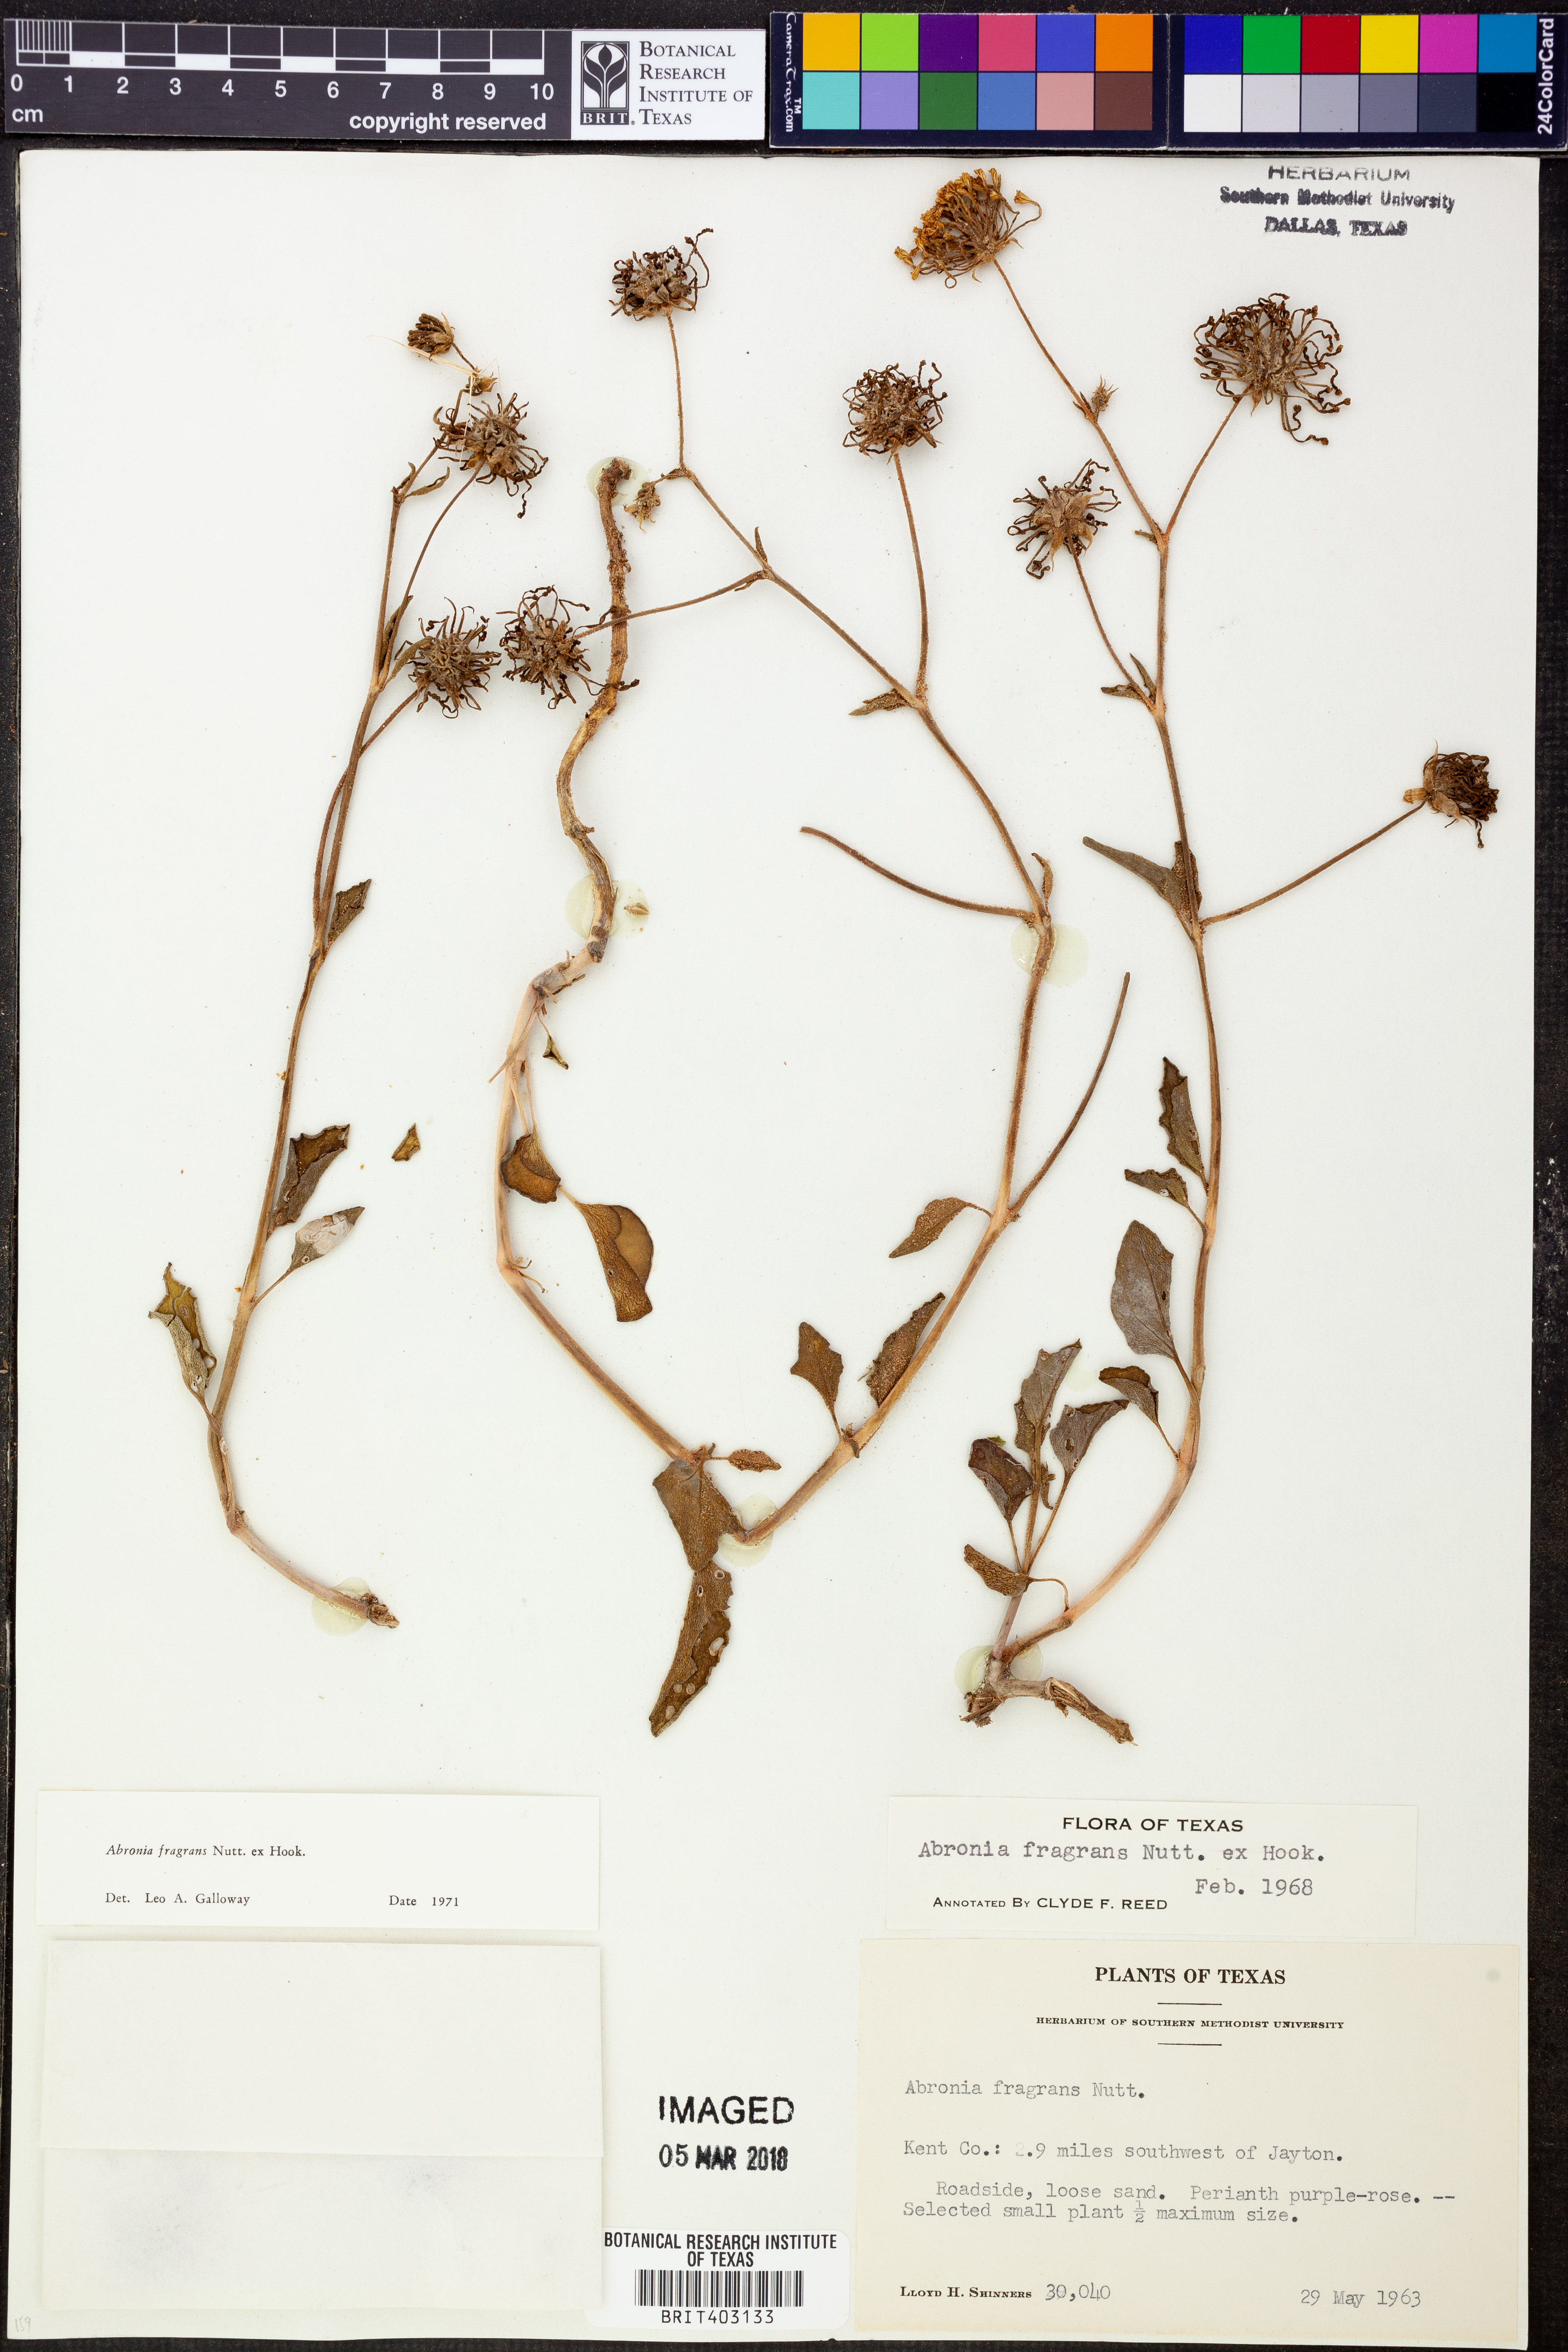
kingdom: Plantae
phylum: Tracheophyta
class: Magnoliopsida
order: Caryophyllales
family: Nyctaginaceae
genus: Abronia
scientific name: Abronia fragrans
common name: Fragrant sand-verbena
